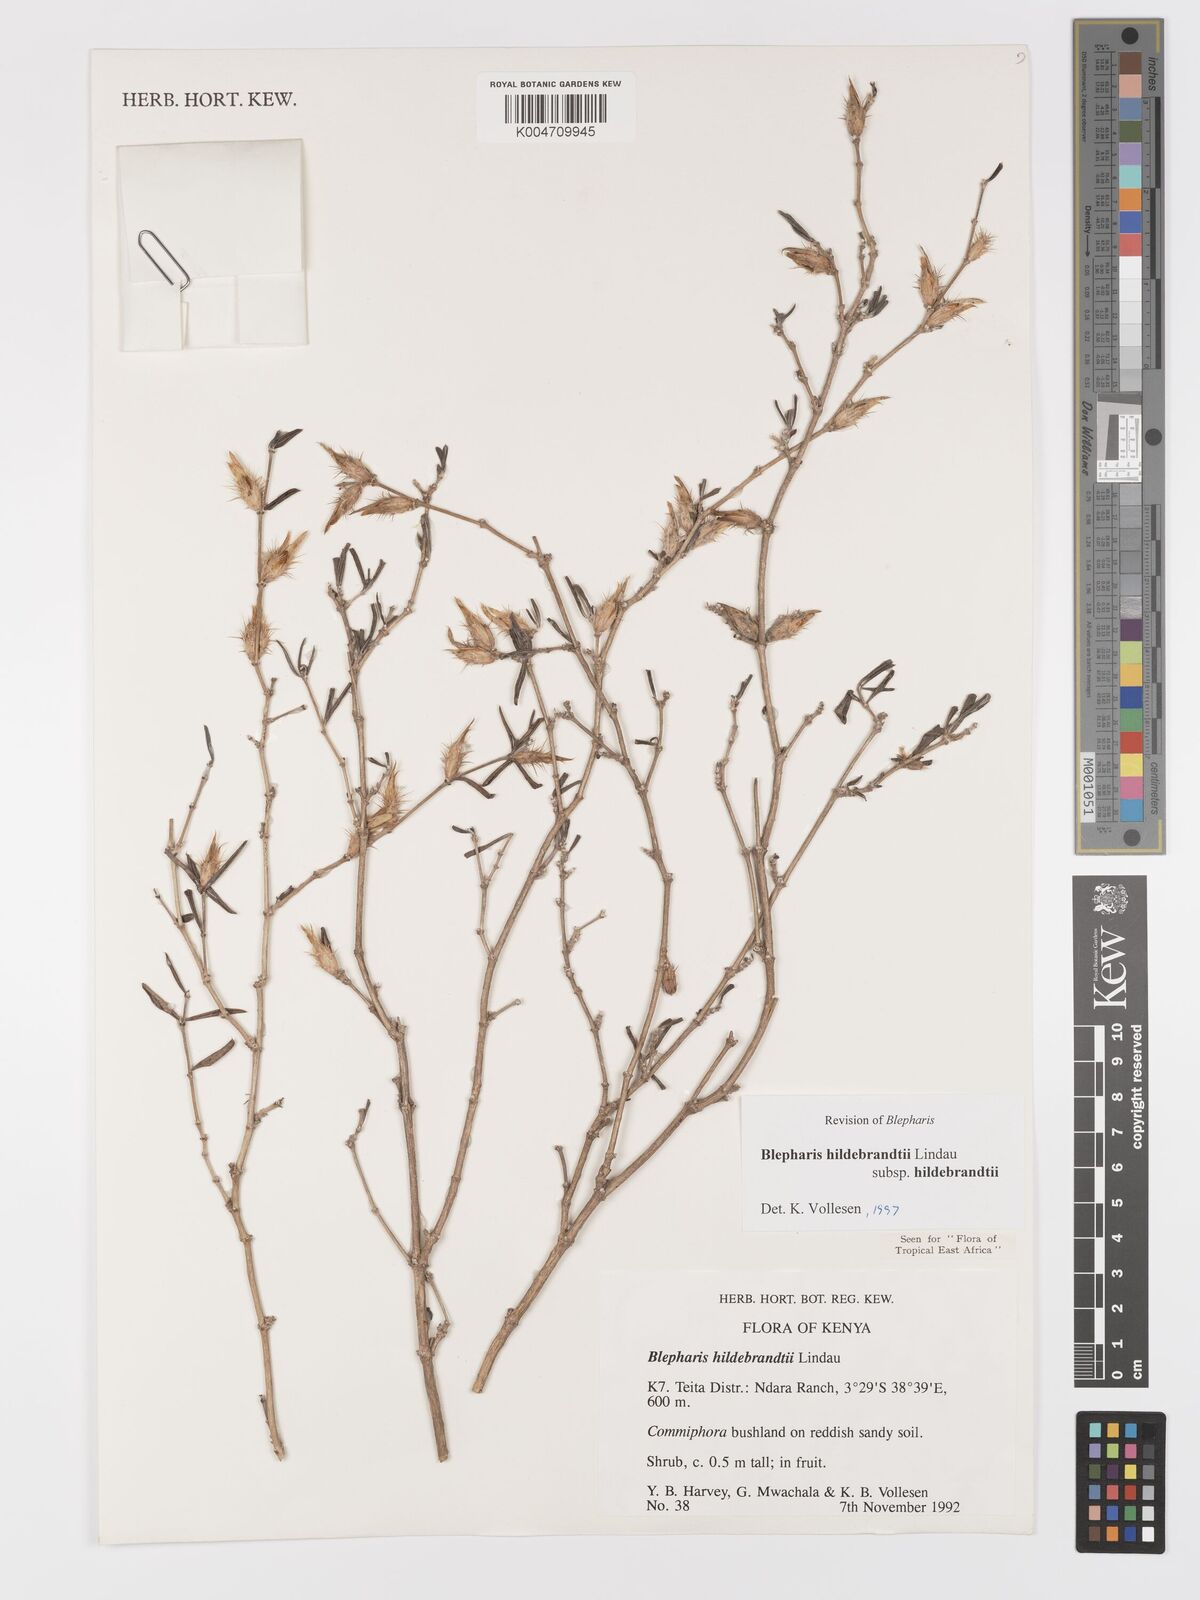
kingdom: Plantae
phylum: Tracheophyta
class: Magnoliopsida
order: Lamiales
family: Acanthaceae
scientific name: Acanthaceae
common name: Acanthaceae
